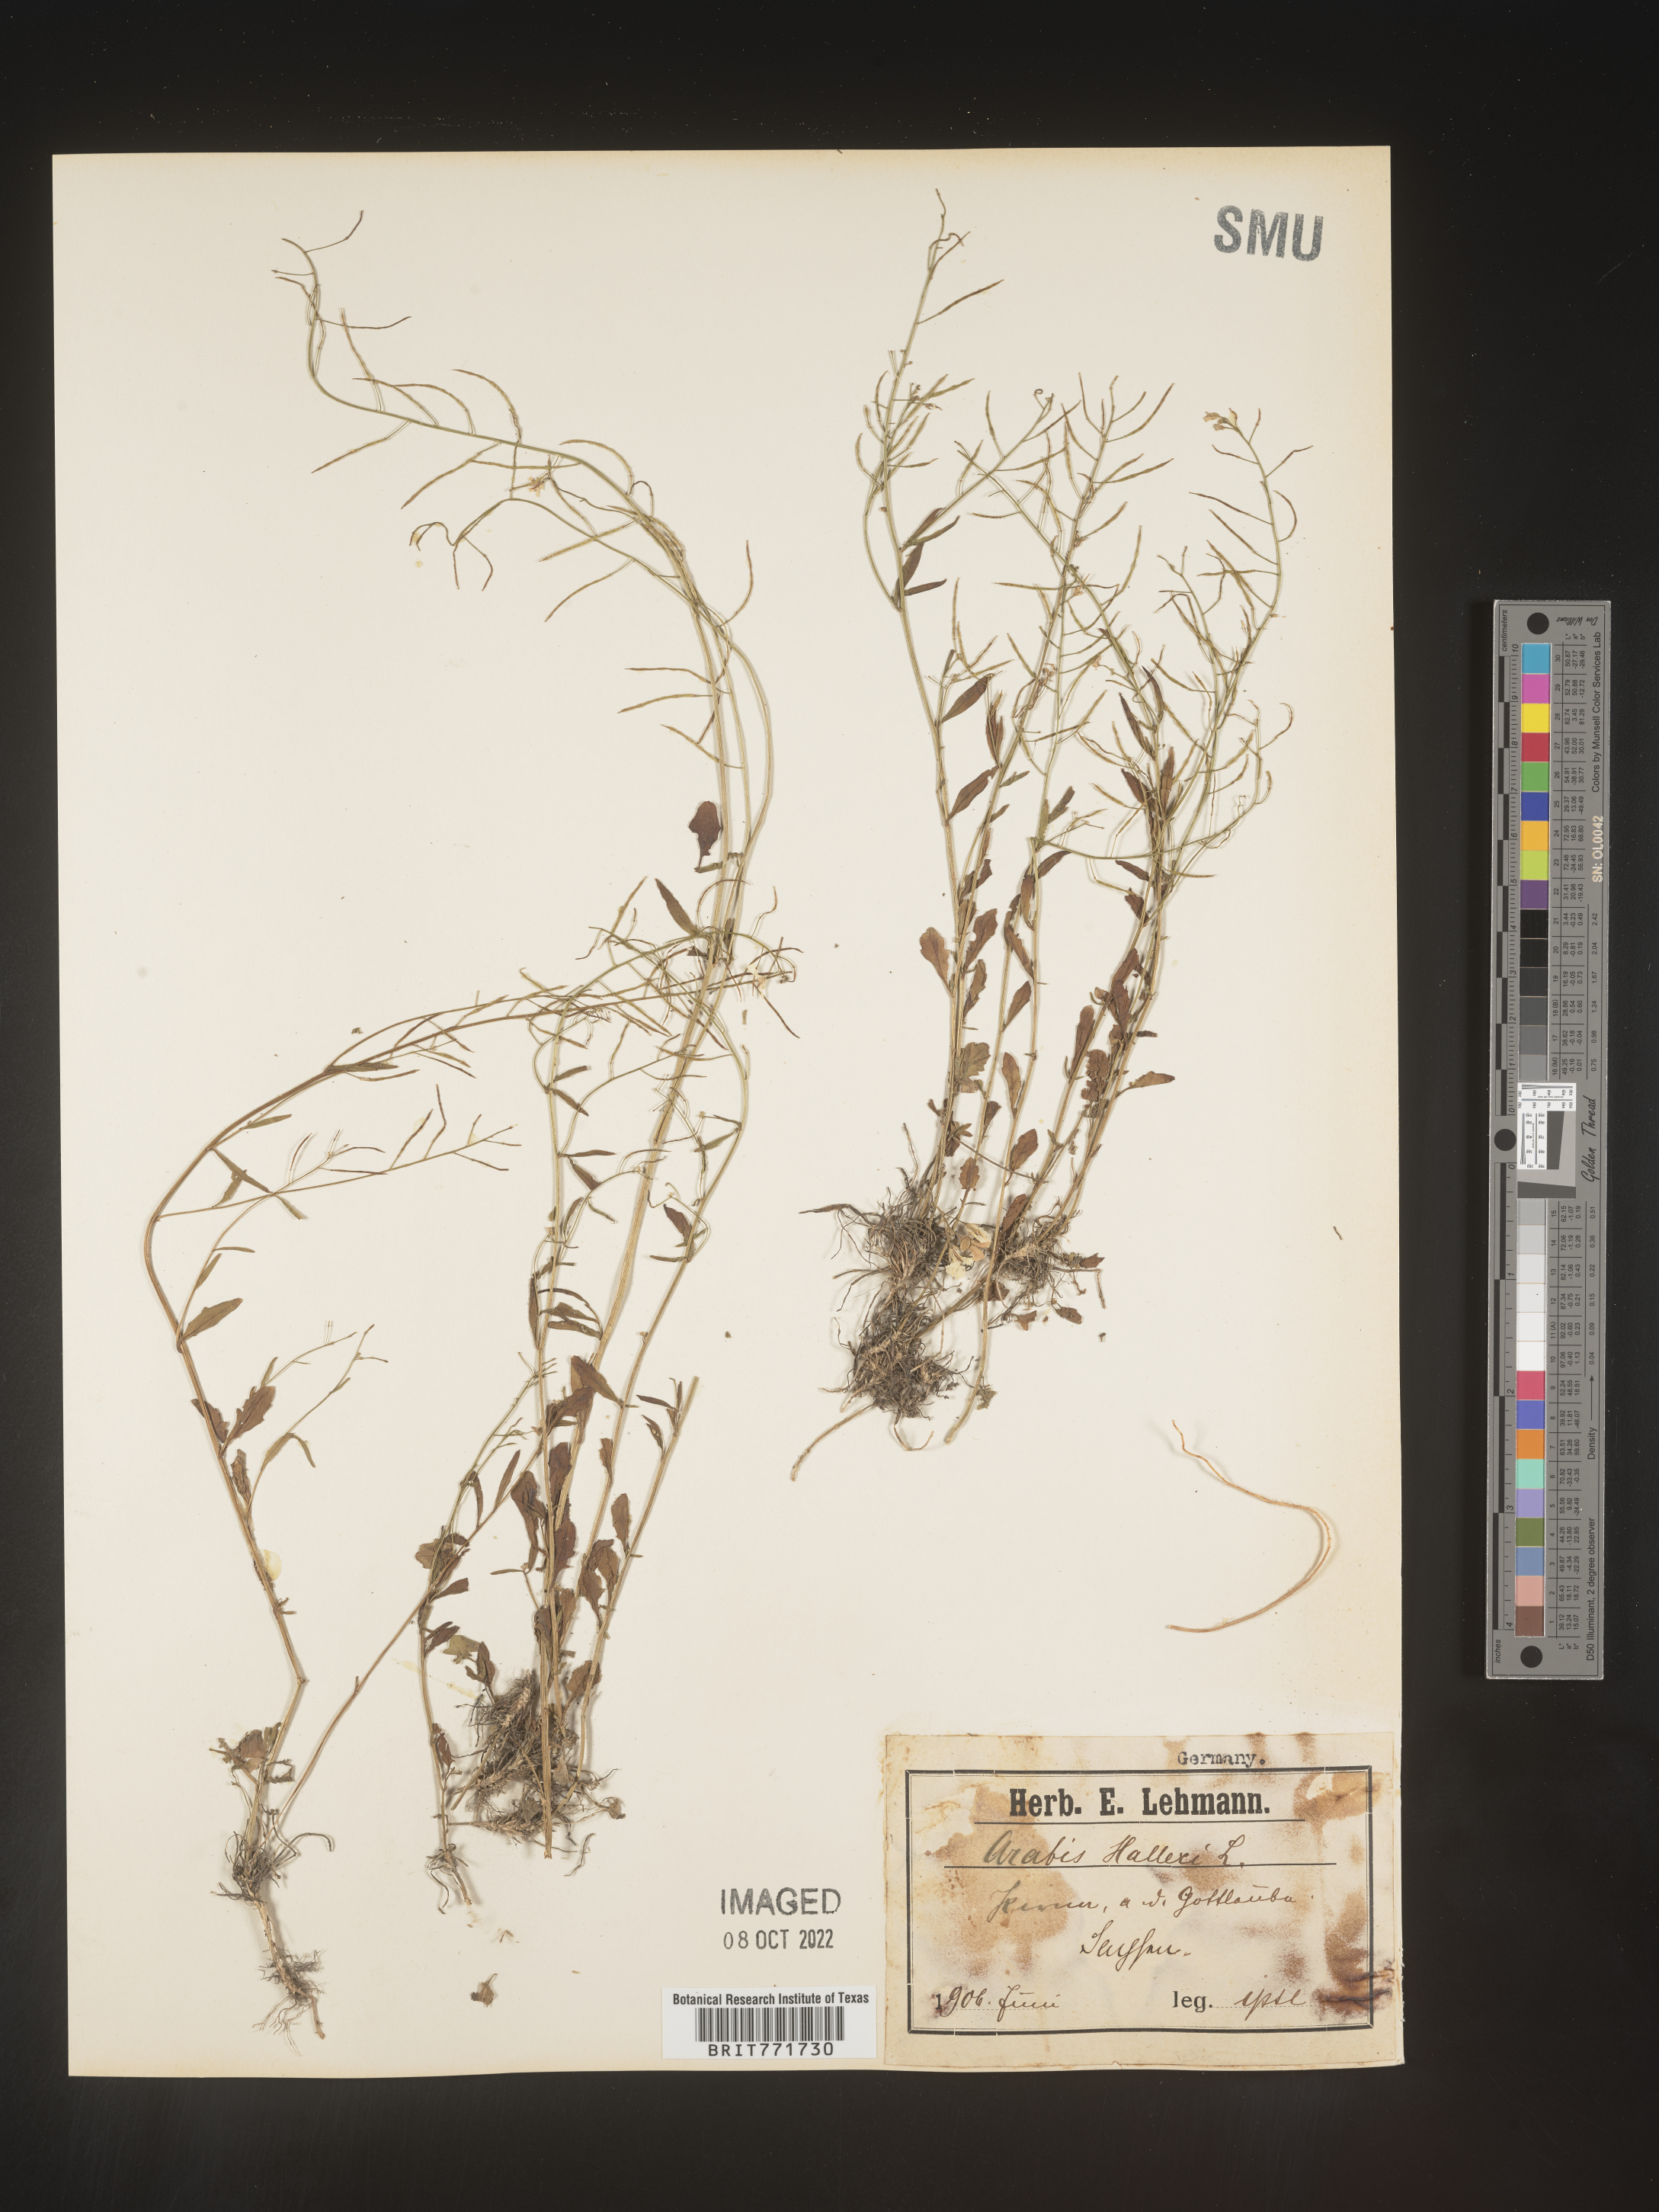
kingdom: Plantae
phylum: Tracheophyta
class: Magnoliopsida
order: Brassicales
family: Brassicaceae
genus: Arabis
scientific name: Arabis
